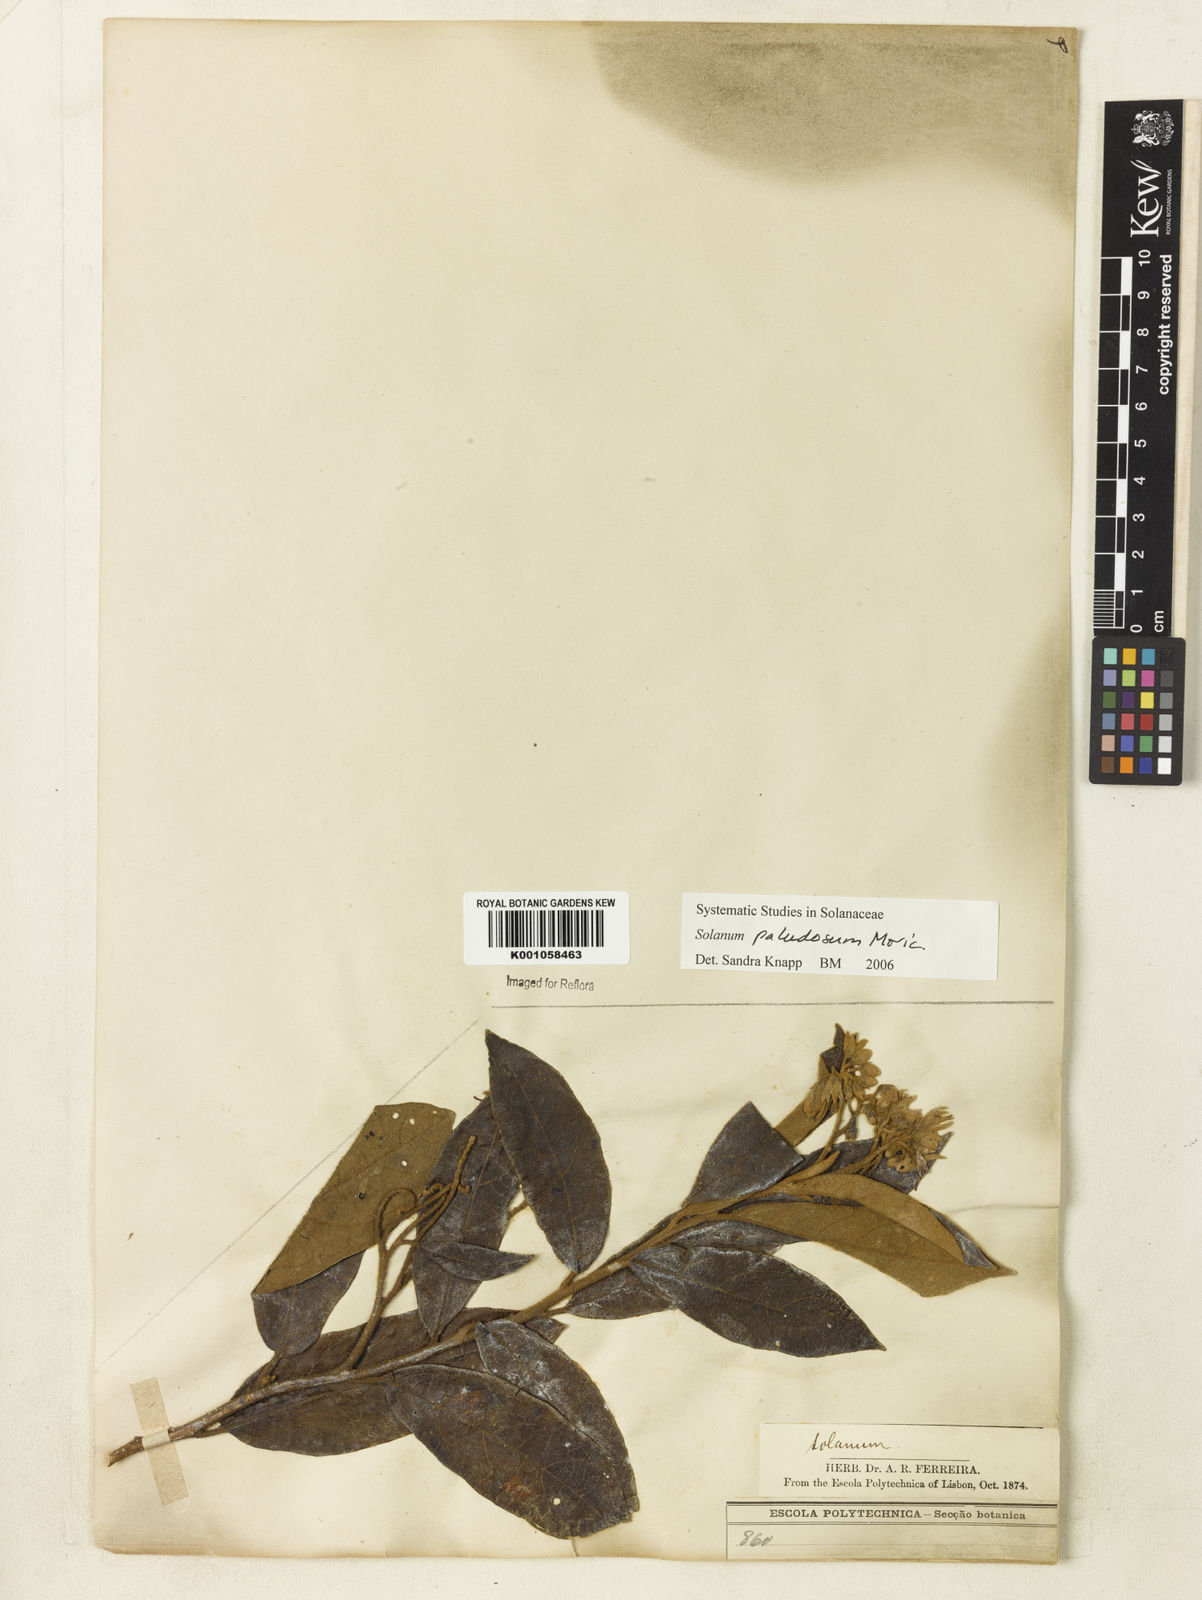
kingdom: Plantae
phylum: Tracheophyta
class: Magnoliopsida
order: Solanales
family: Solanaceae
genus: Solanum
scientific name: Solanum paludosum
